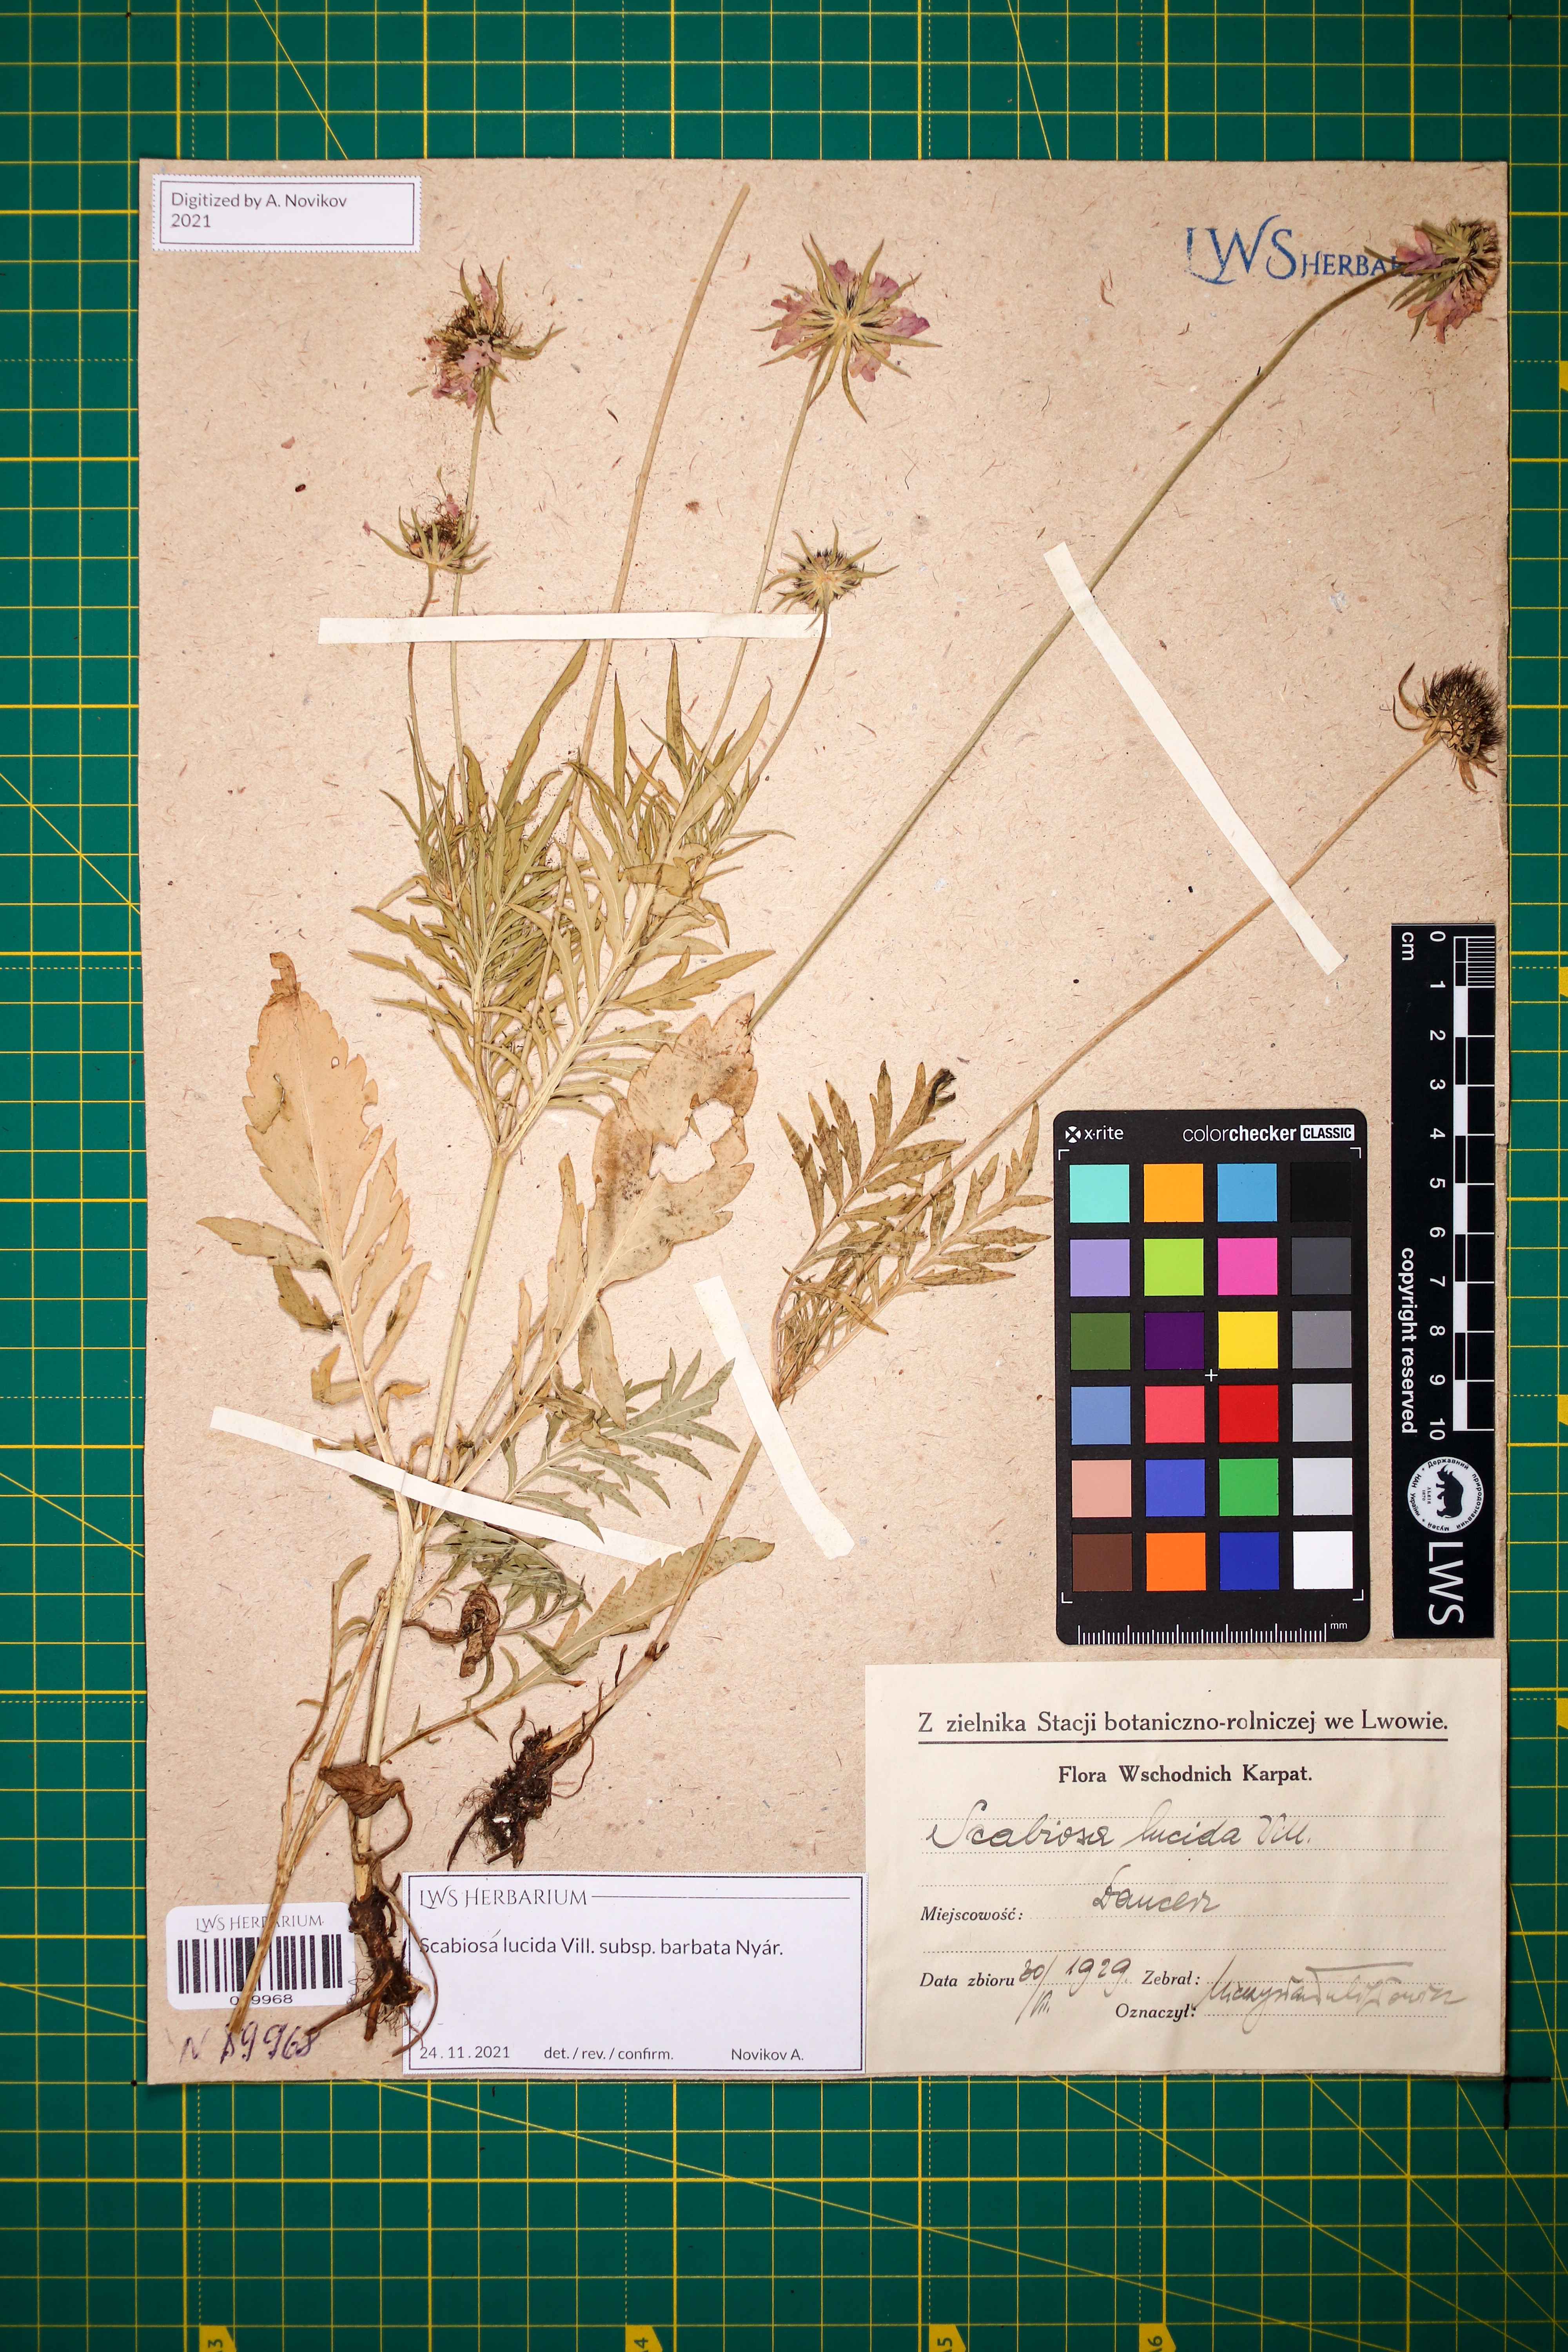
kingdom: Plantae
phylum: Tracheophyta
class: Magnoliopsida
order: Dipsacales
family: Caprifoliaceae
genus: Scabiosa
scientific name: Scabiosa lucida
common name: Shining scabious
